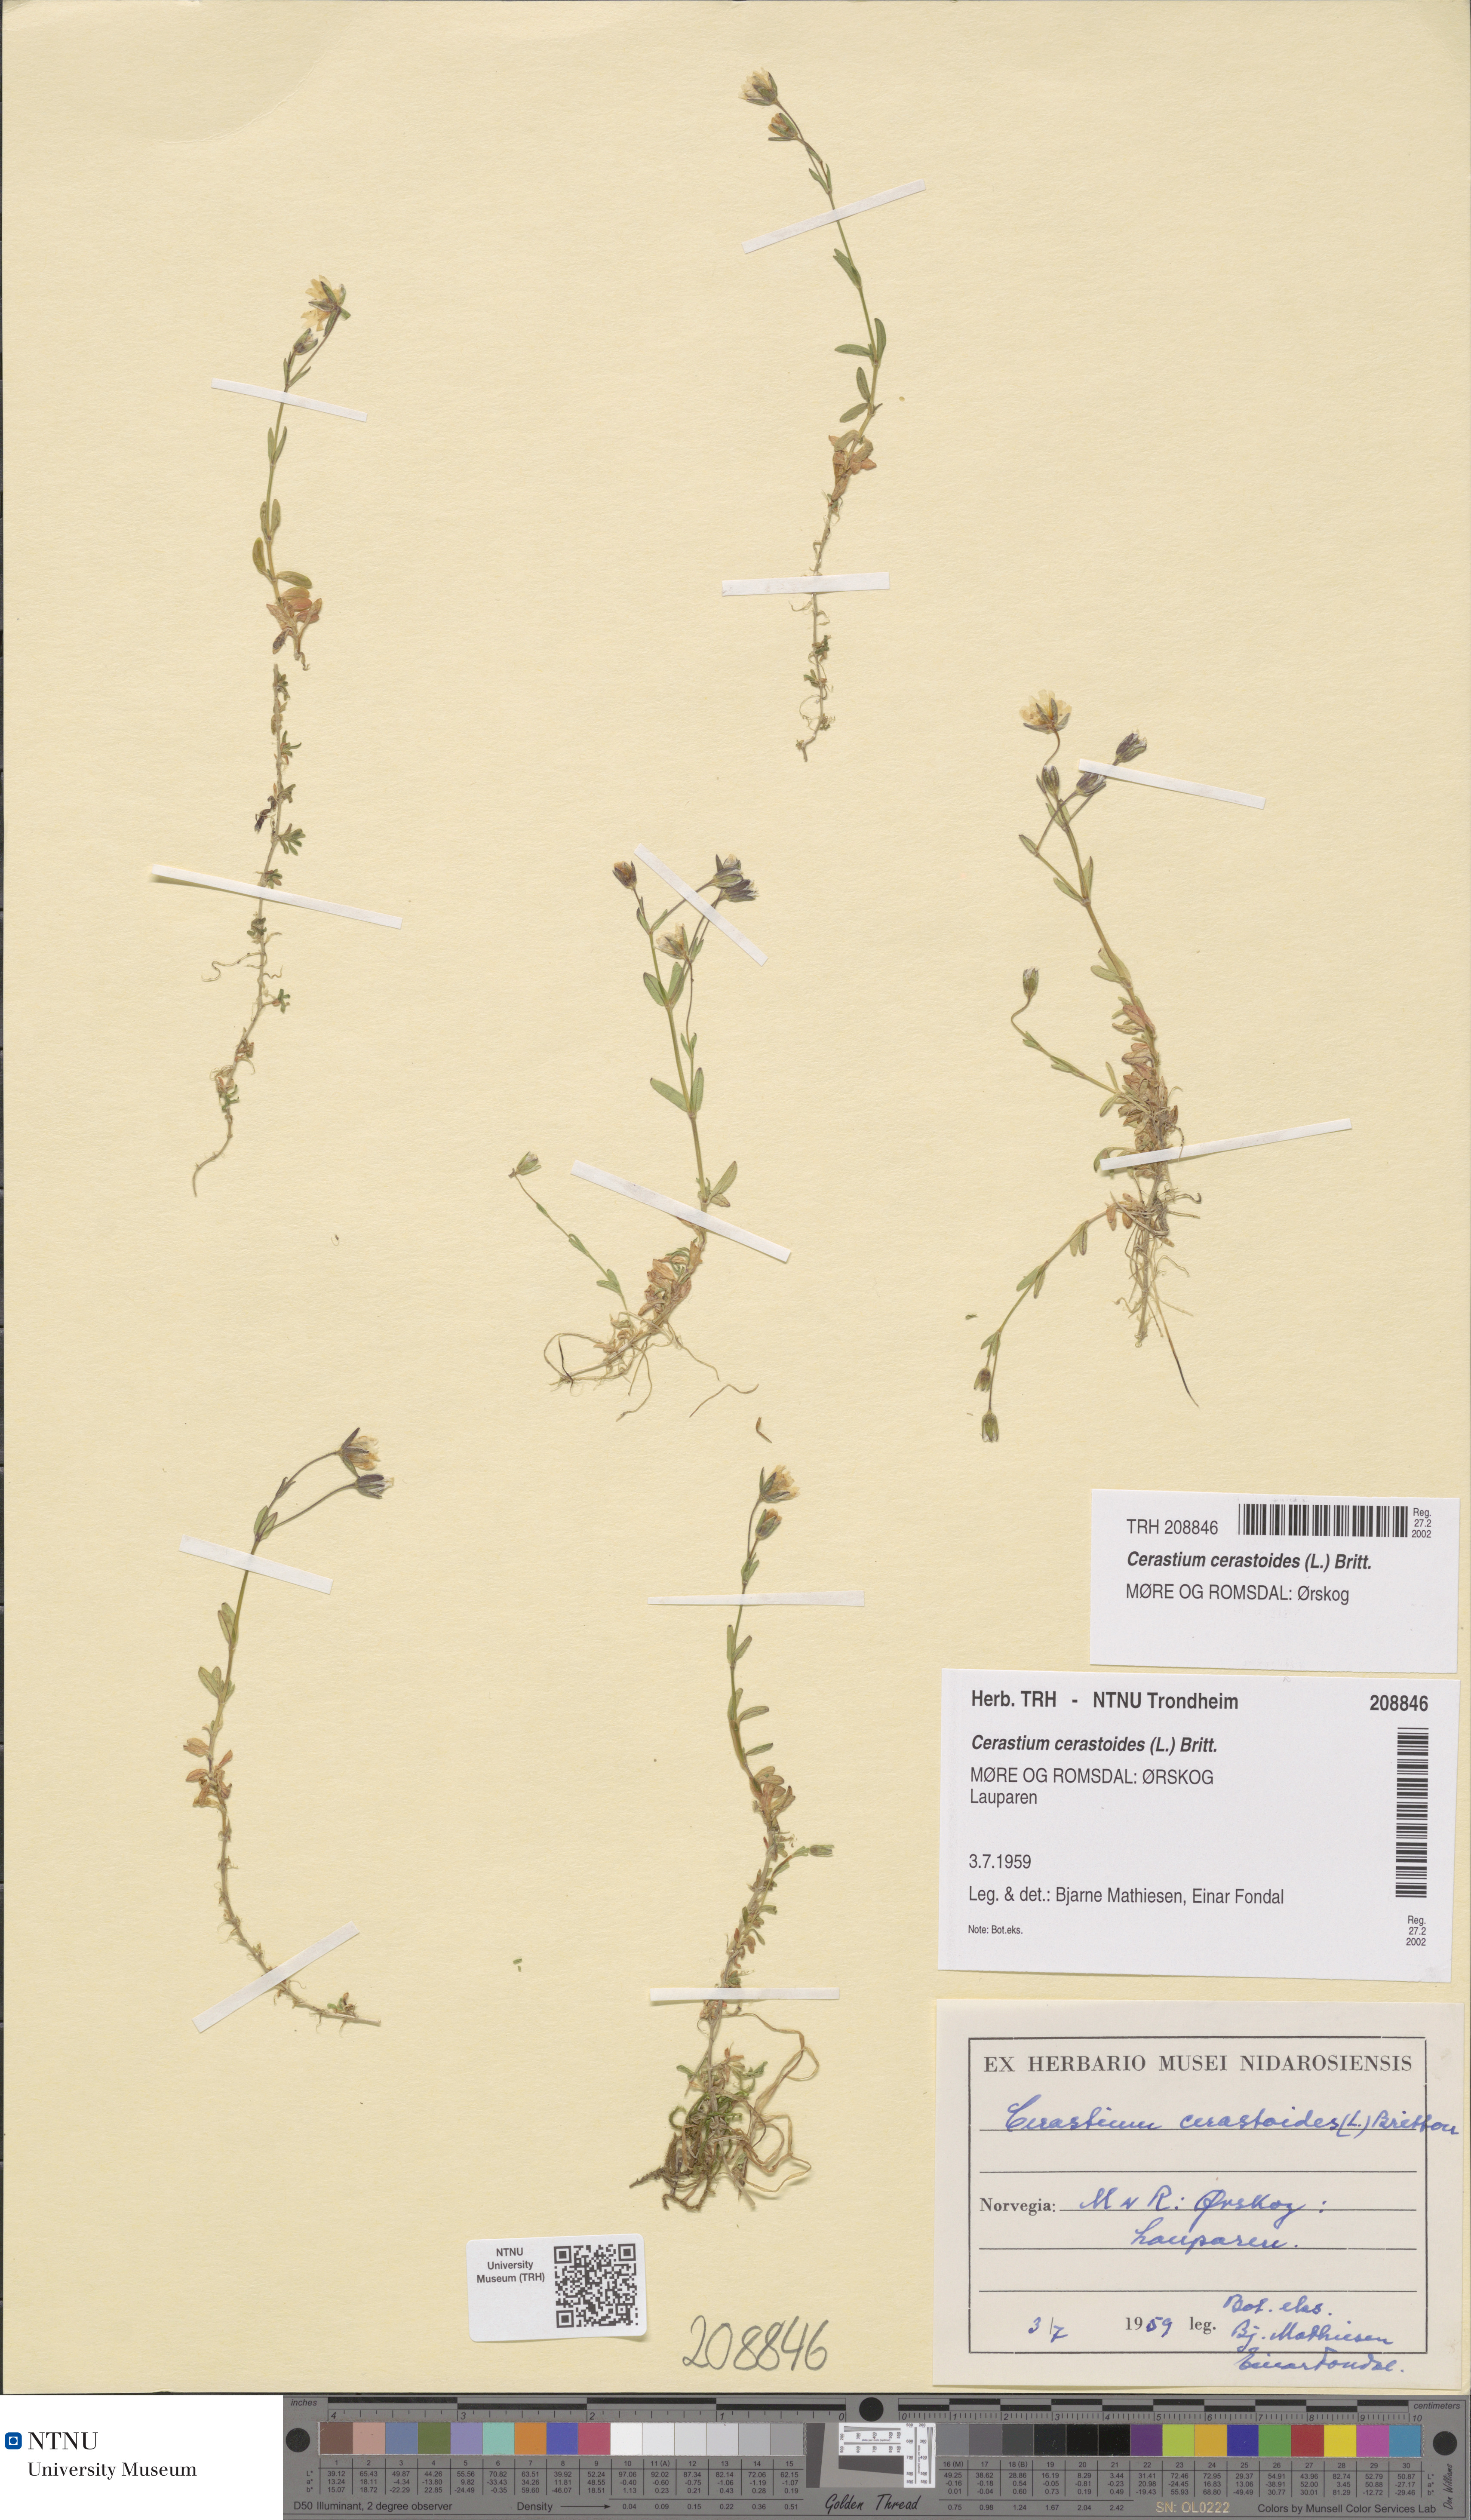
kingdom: Plantae
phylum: Tracheophyta
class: Magnoliopsida
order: Caryophyllales
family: Caryophyllaceae
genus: Dichodon
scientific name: Dichodon cerastoides
